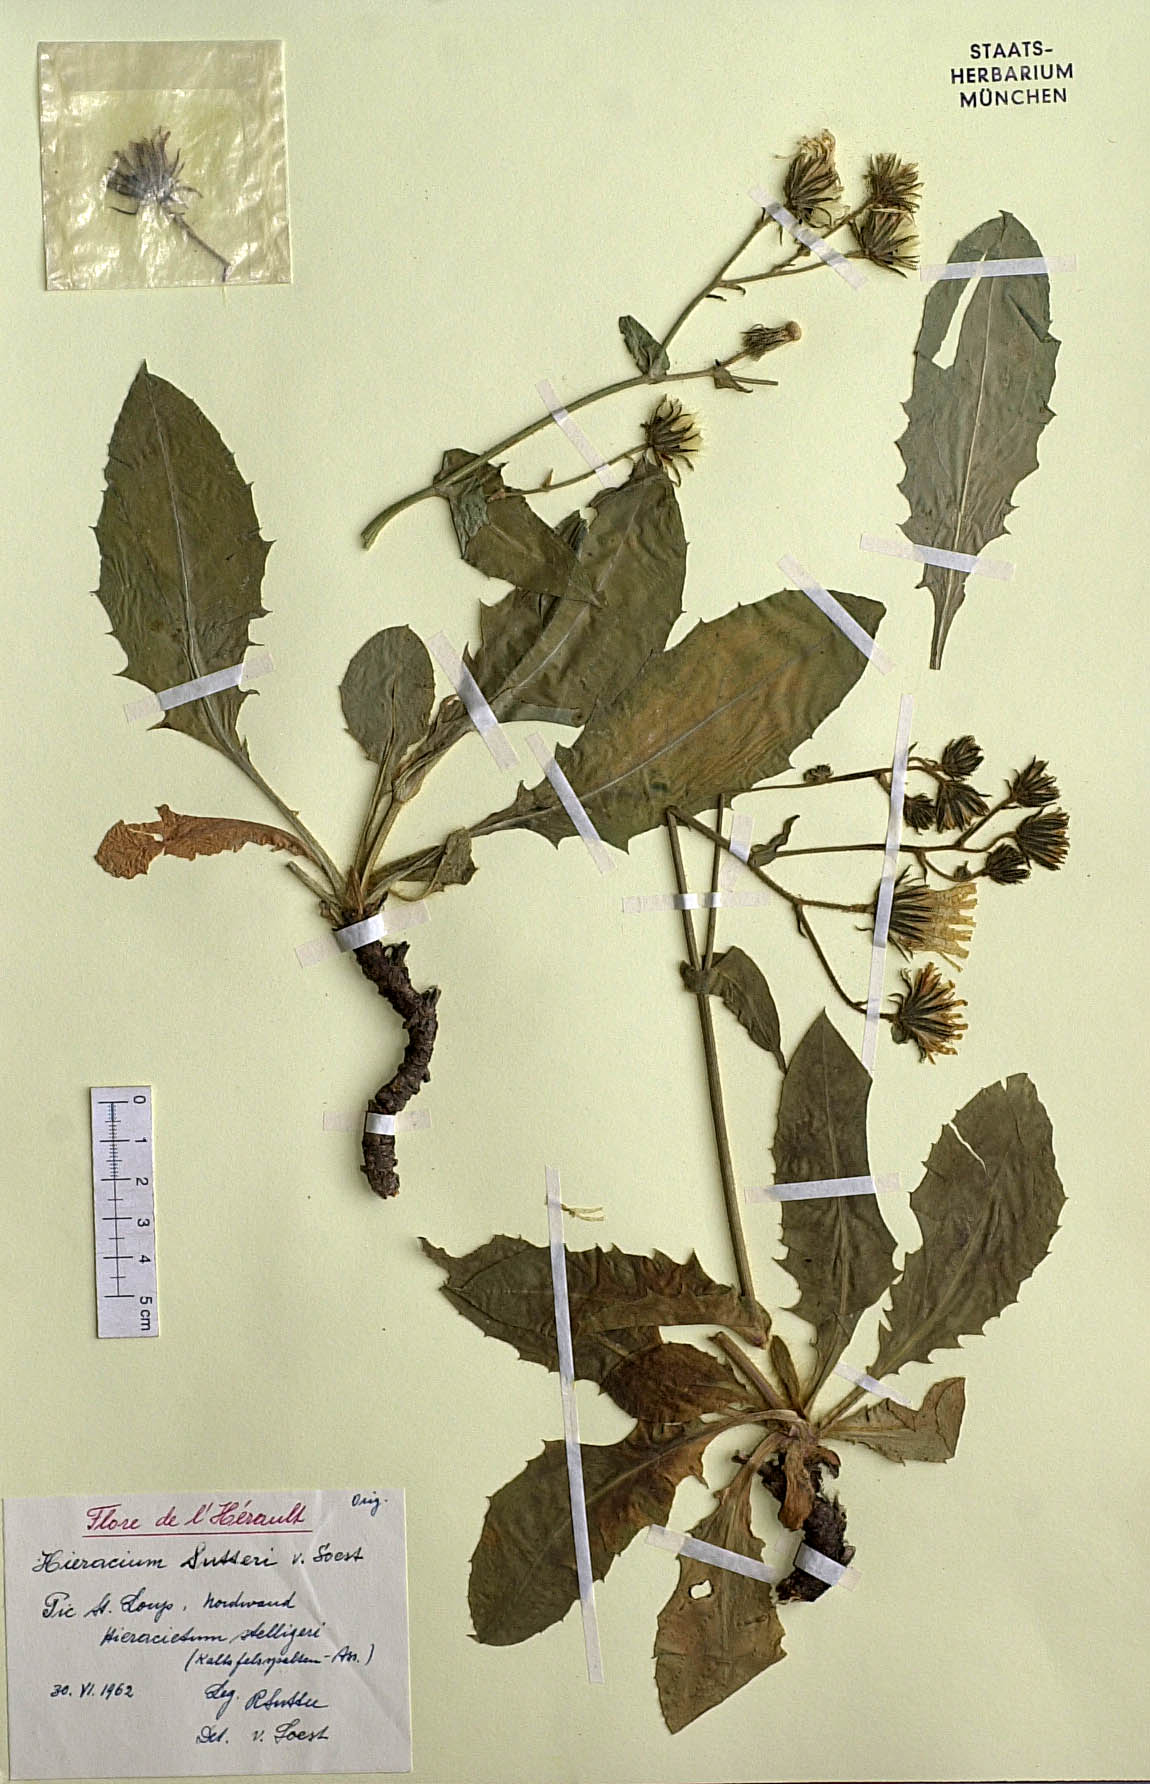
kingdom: Plantae
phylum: Tracheophyta
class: Magnoliopsida
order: Asterales
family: Asteraceae
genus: Hieracium
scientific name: Hieracium sutteri
